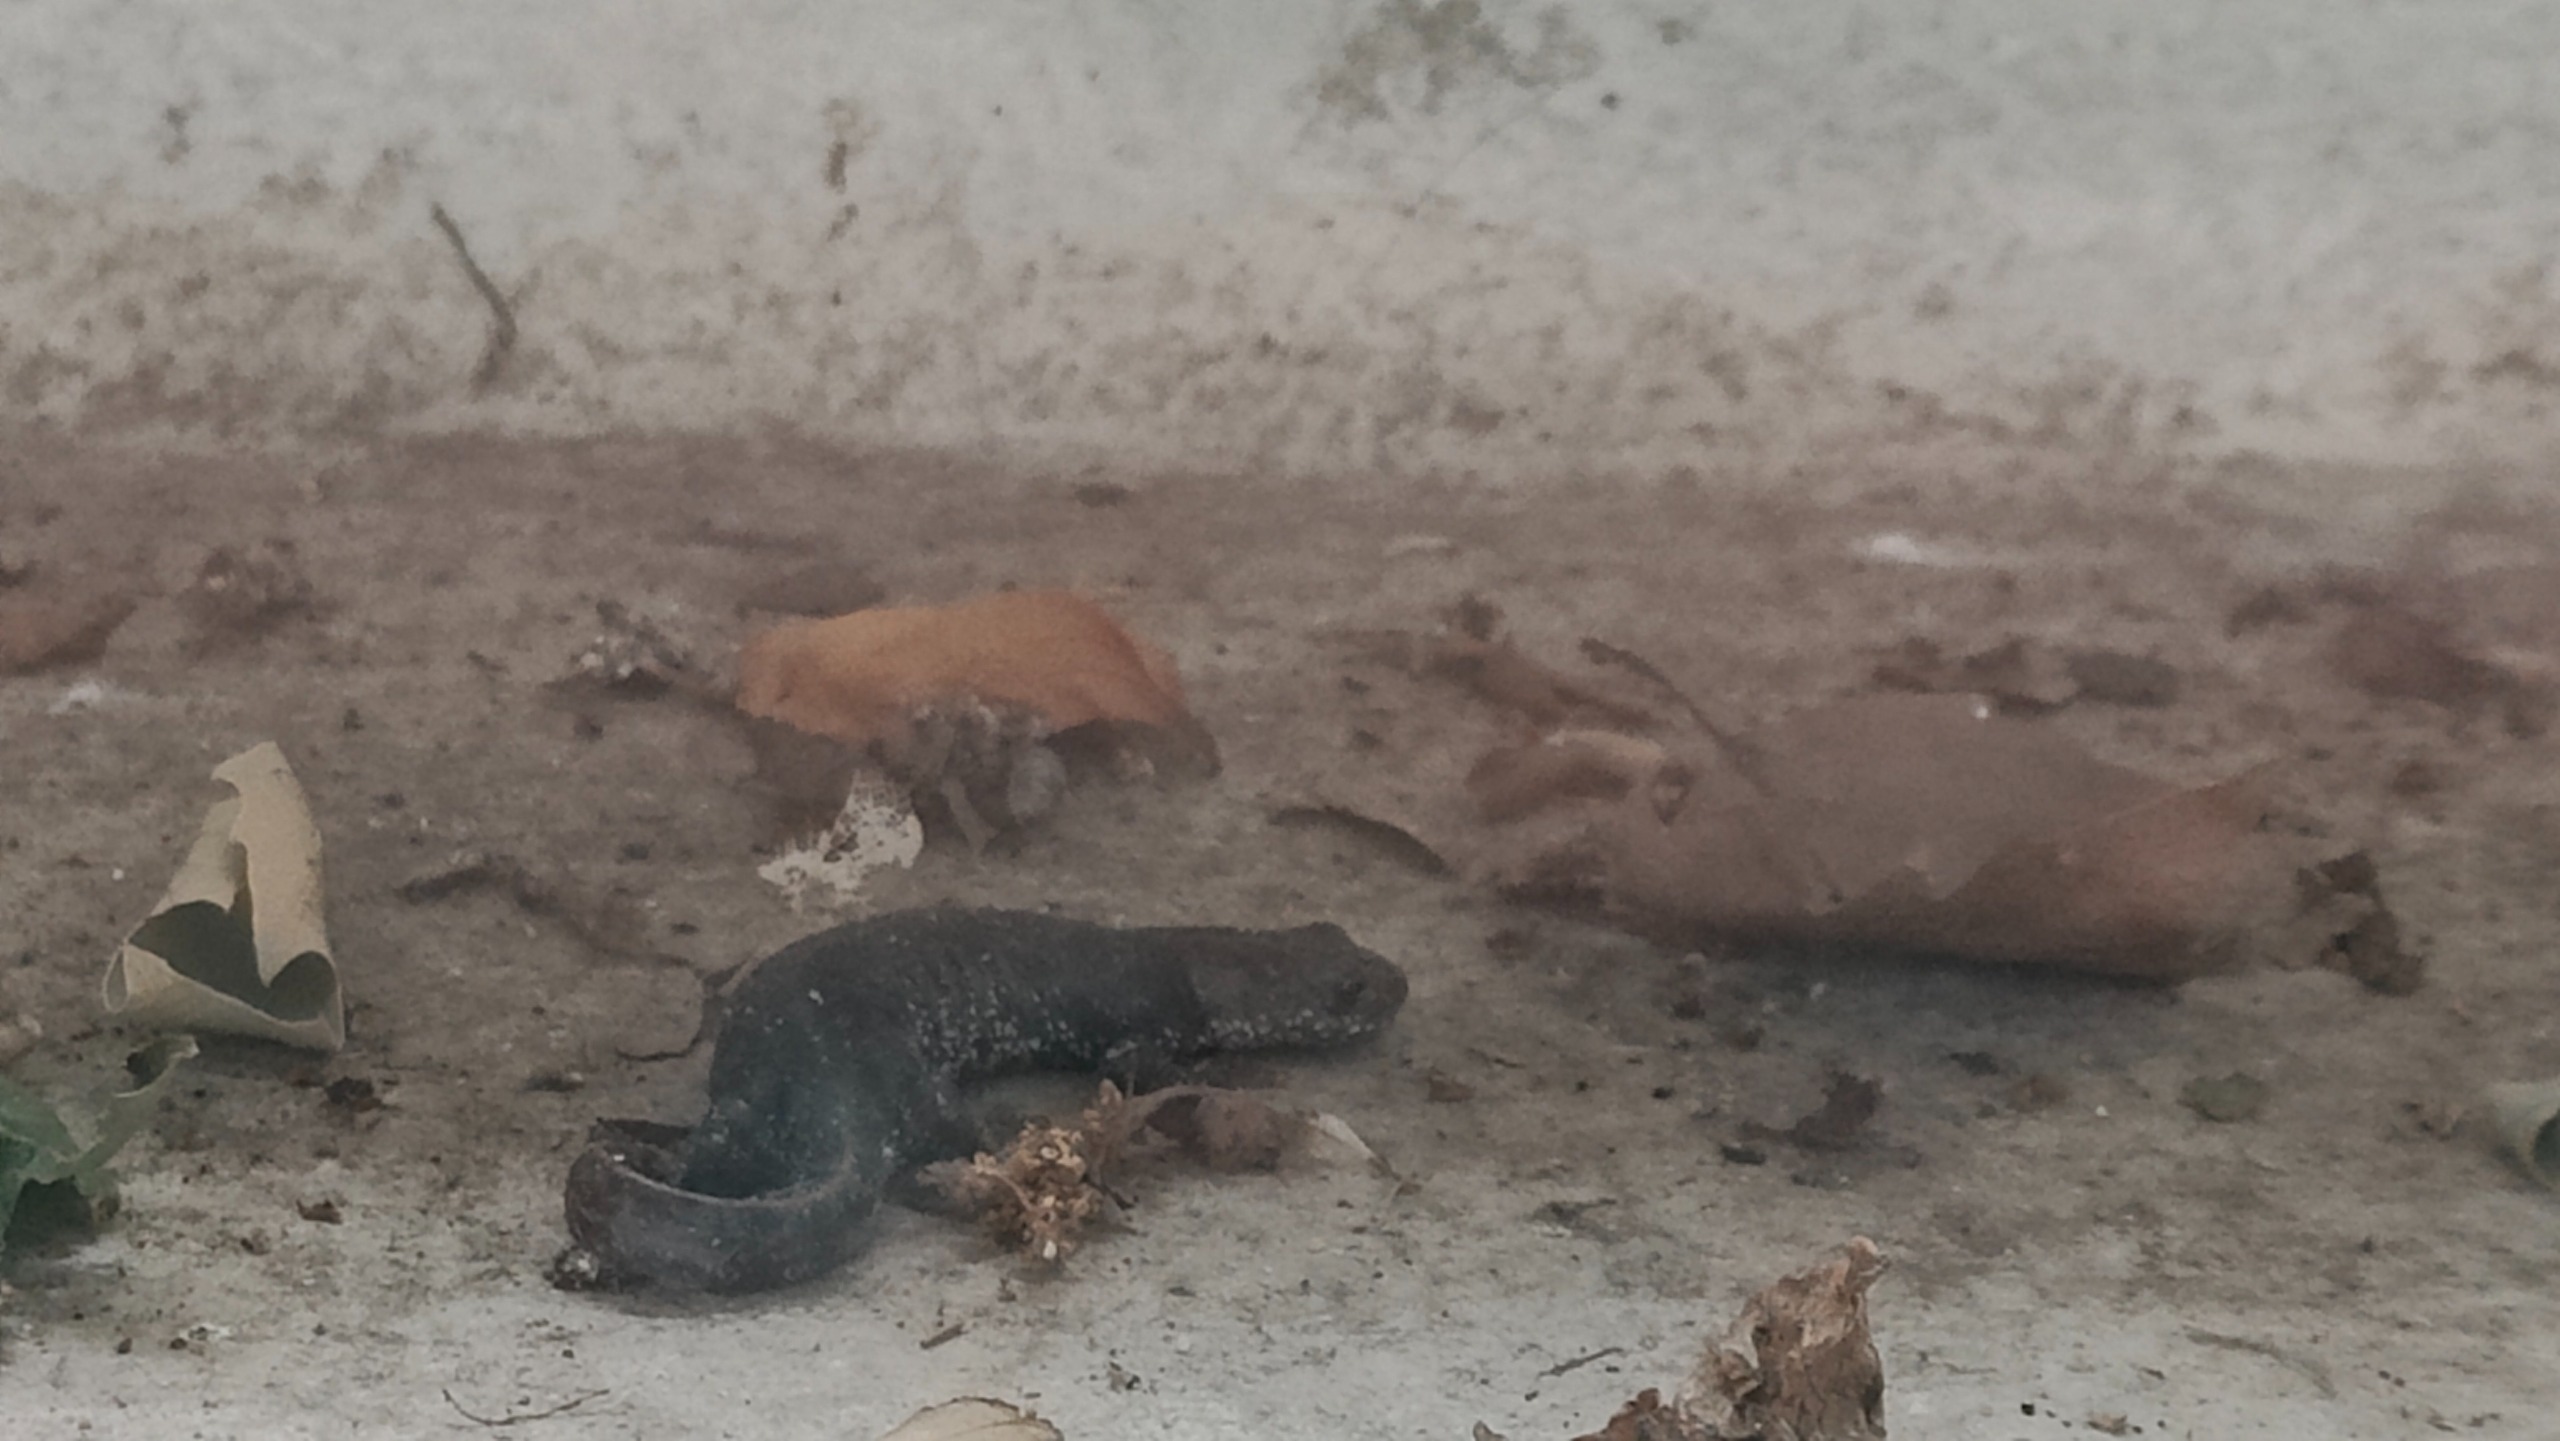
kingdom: Animalia
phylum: Chordata
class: Amphibia
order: Caudata
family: Salamandridae
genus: Triturus
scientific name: Triturus cristatus
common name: Stor vandsalamander
